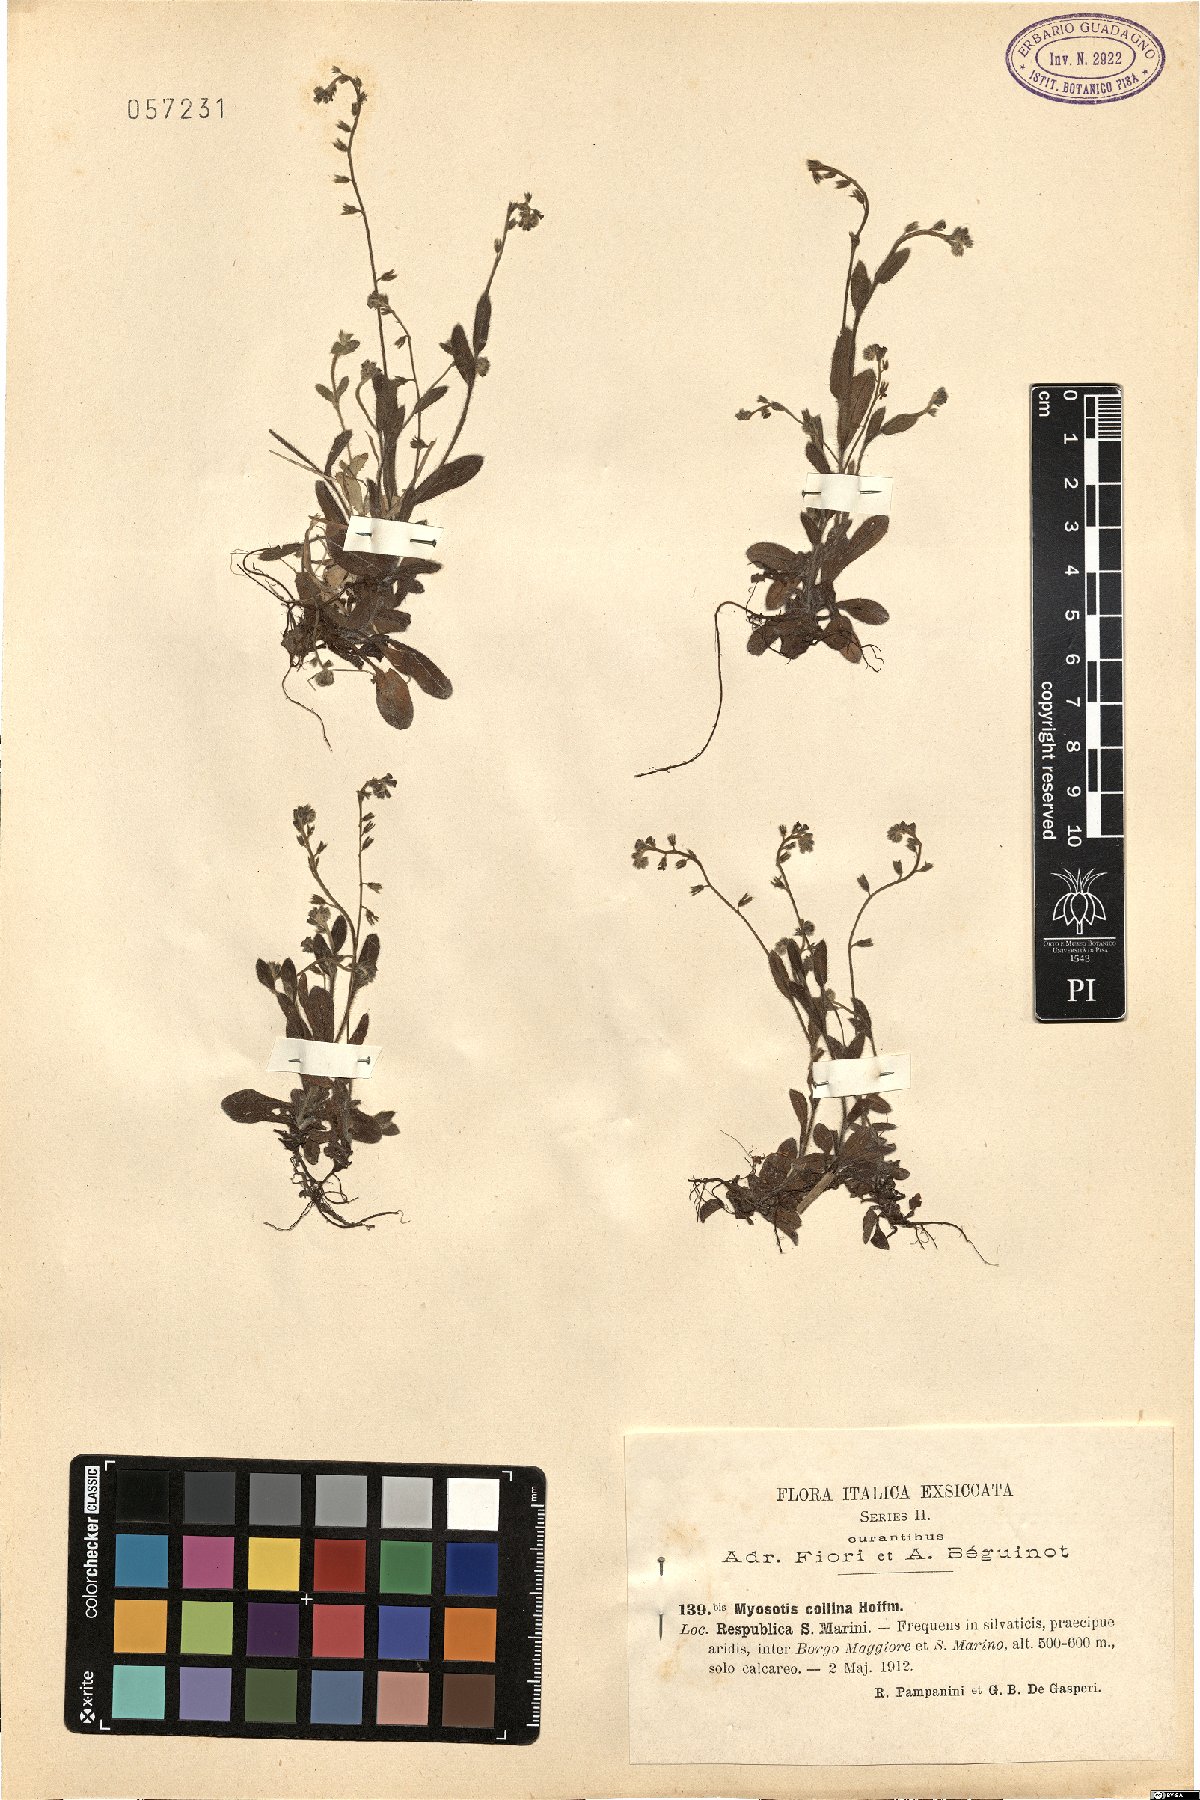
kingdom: Plantae
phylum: Tracheophyta
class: Magnoliopsida
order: Boraginales
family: Boraginaceae
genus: Myosotis
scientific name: Myosotis discolor
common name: Changing forget-me-not
